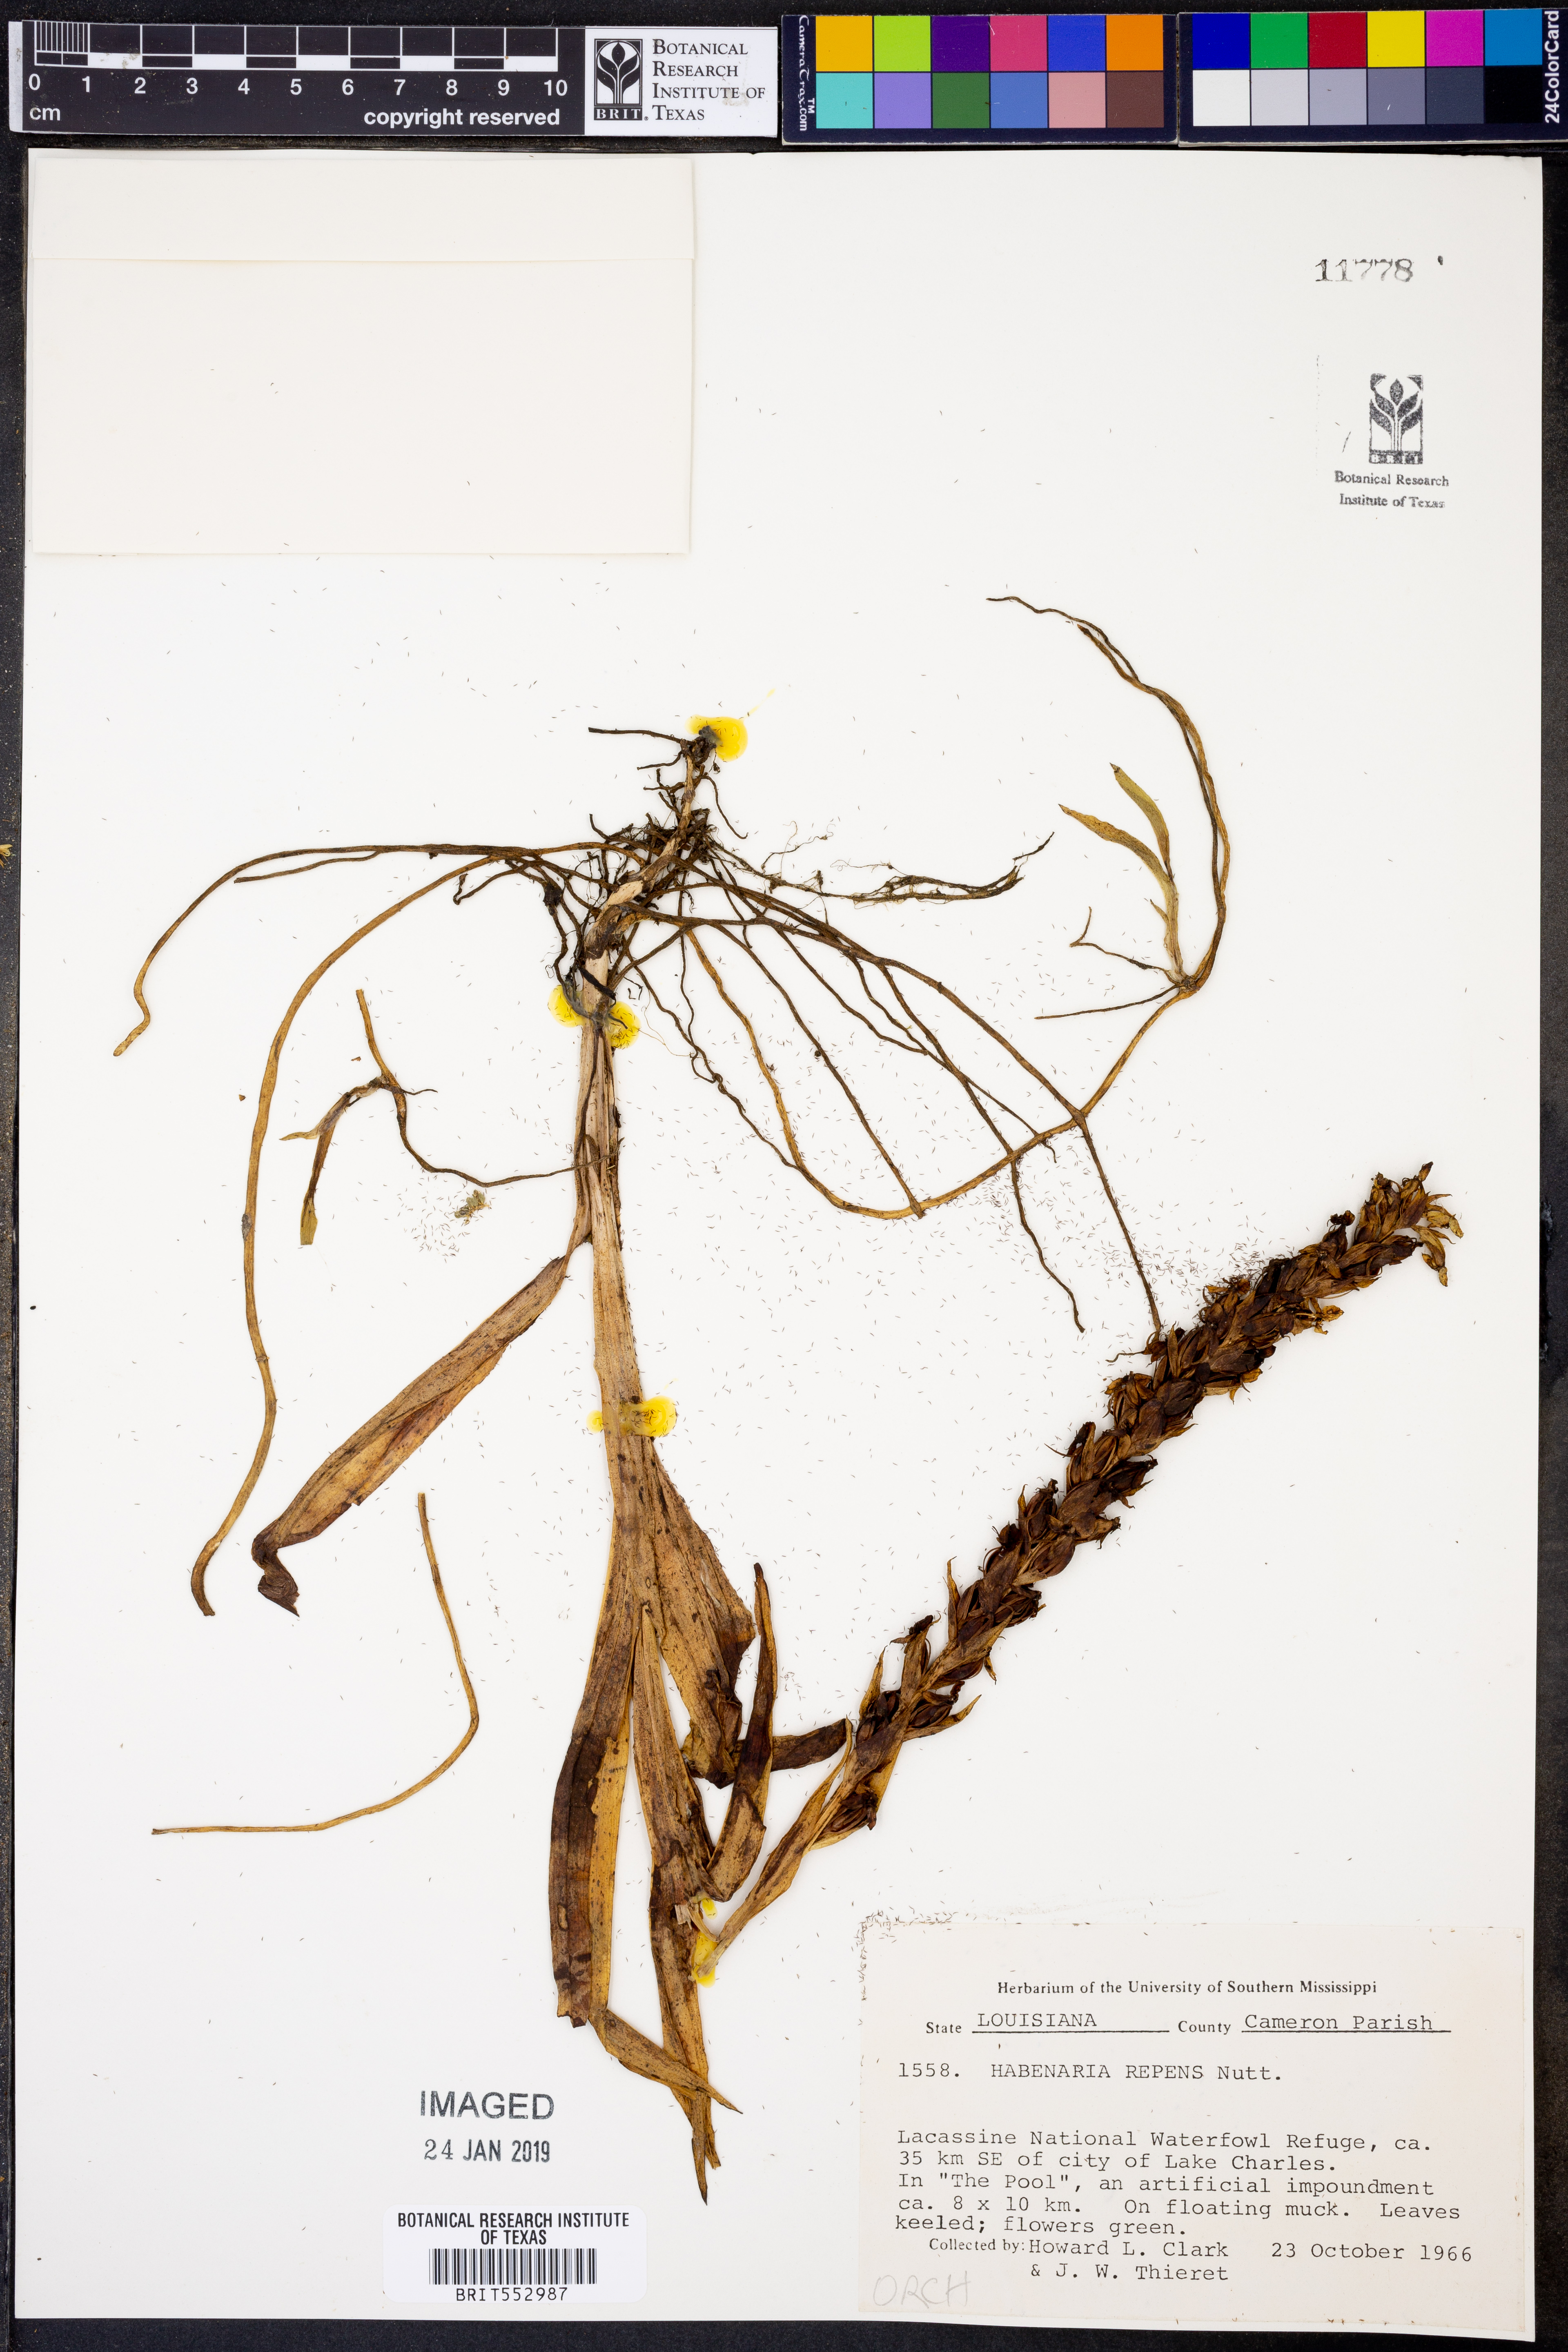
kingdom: Plantae
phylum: Tracheophyta
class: Liliopsida
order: Asparagales
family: Orchidaceae
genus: Habenaria
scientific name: Habenaria repens
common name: Water orchid
